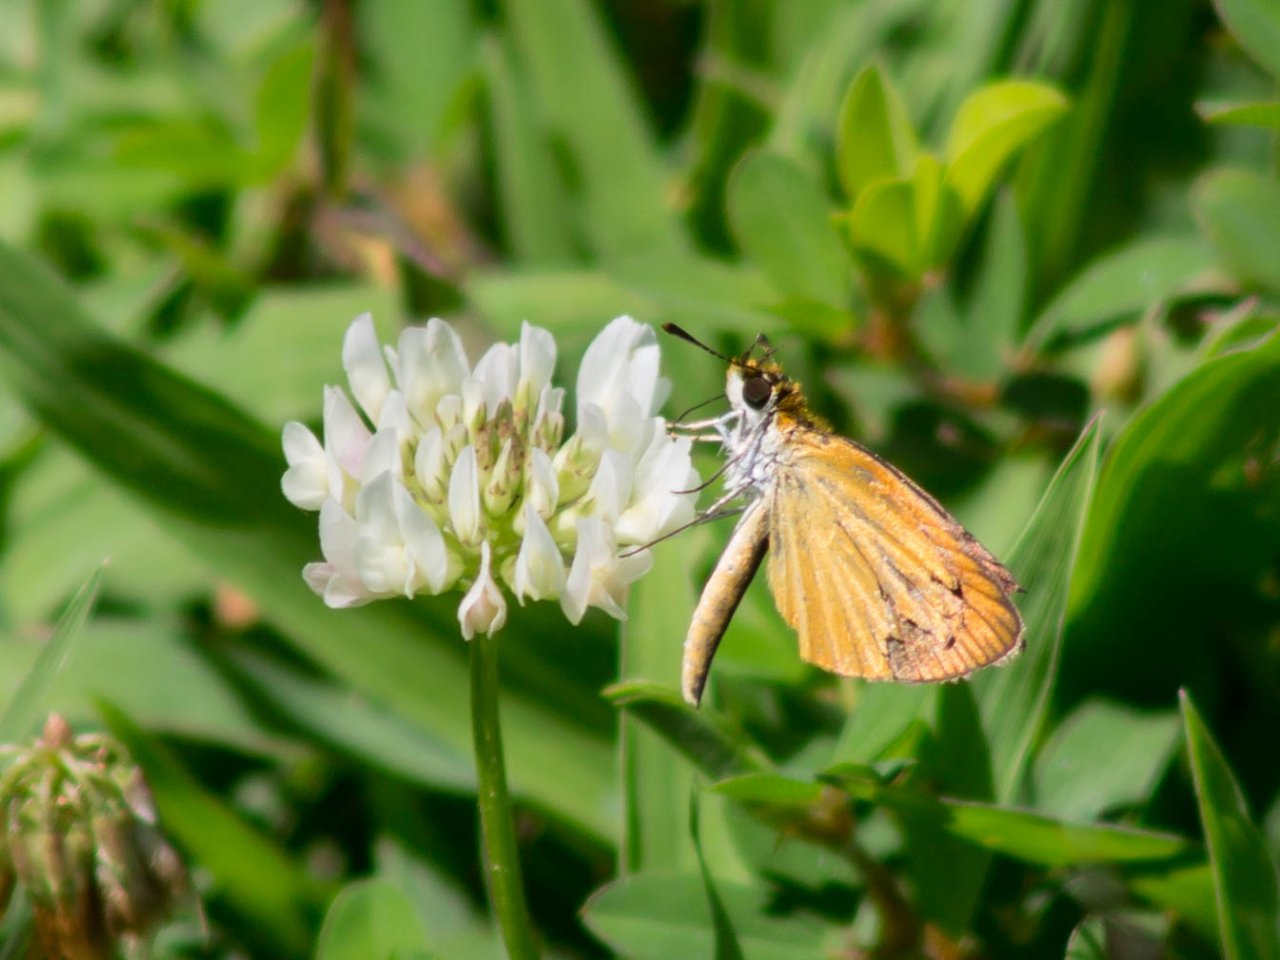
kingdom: Animalia
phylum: Arthropoda
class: Insecta
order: Lepidoptera
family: Hesperiidae
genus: Ancyloxypha
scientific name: Ancyloxypha numitor
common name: Least Skipper
